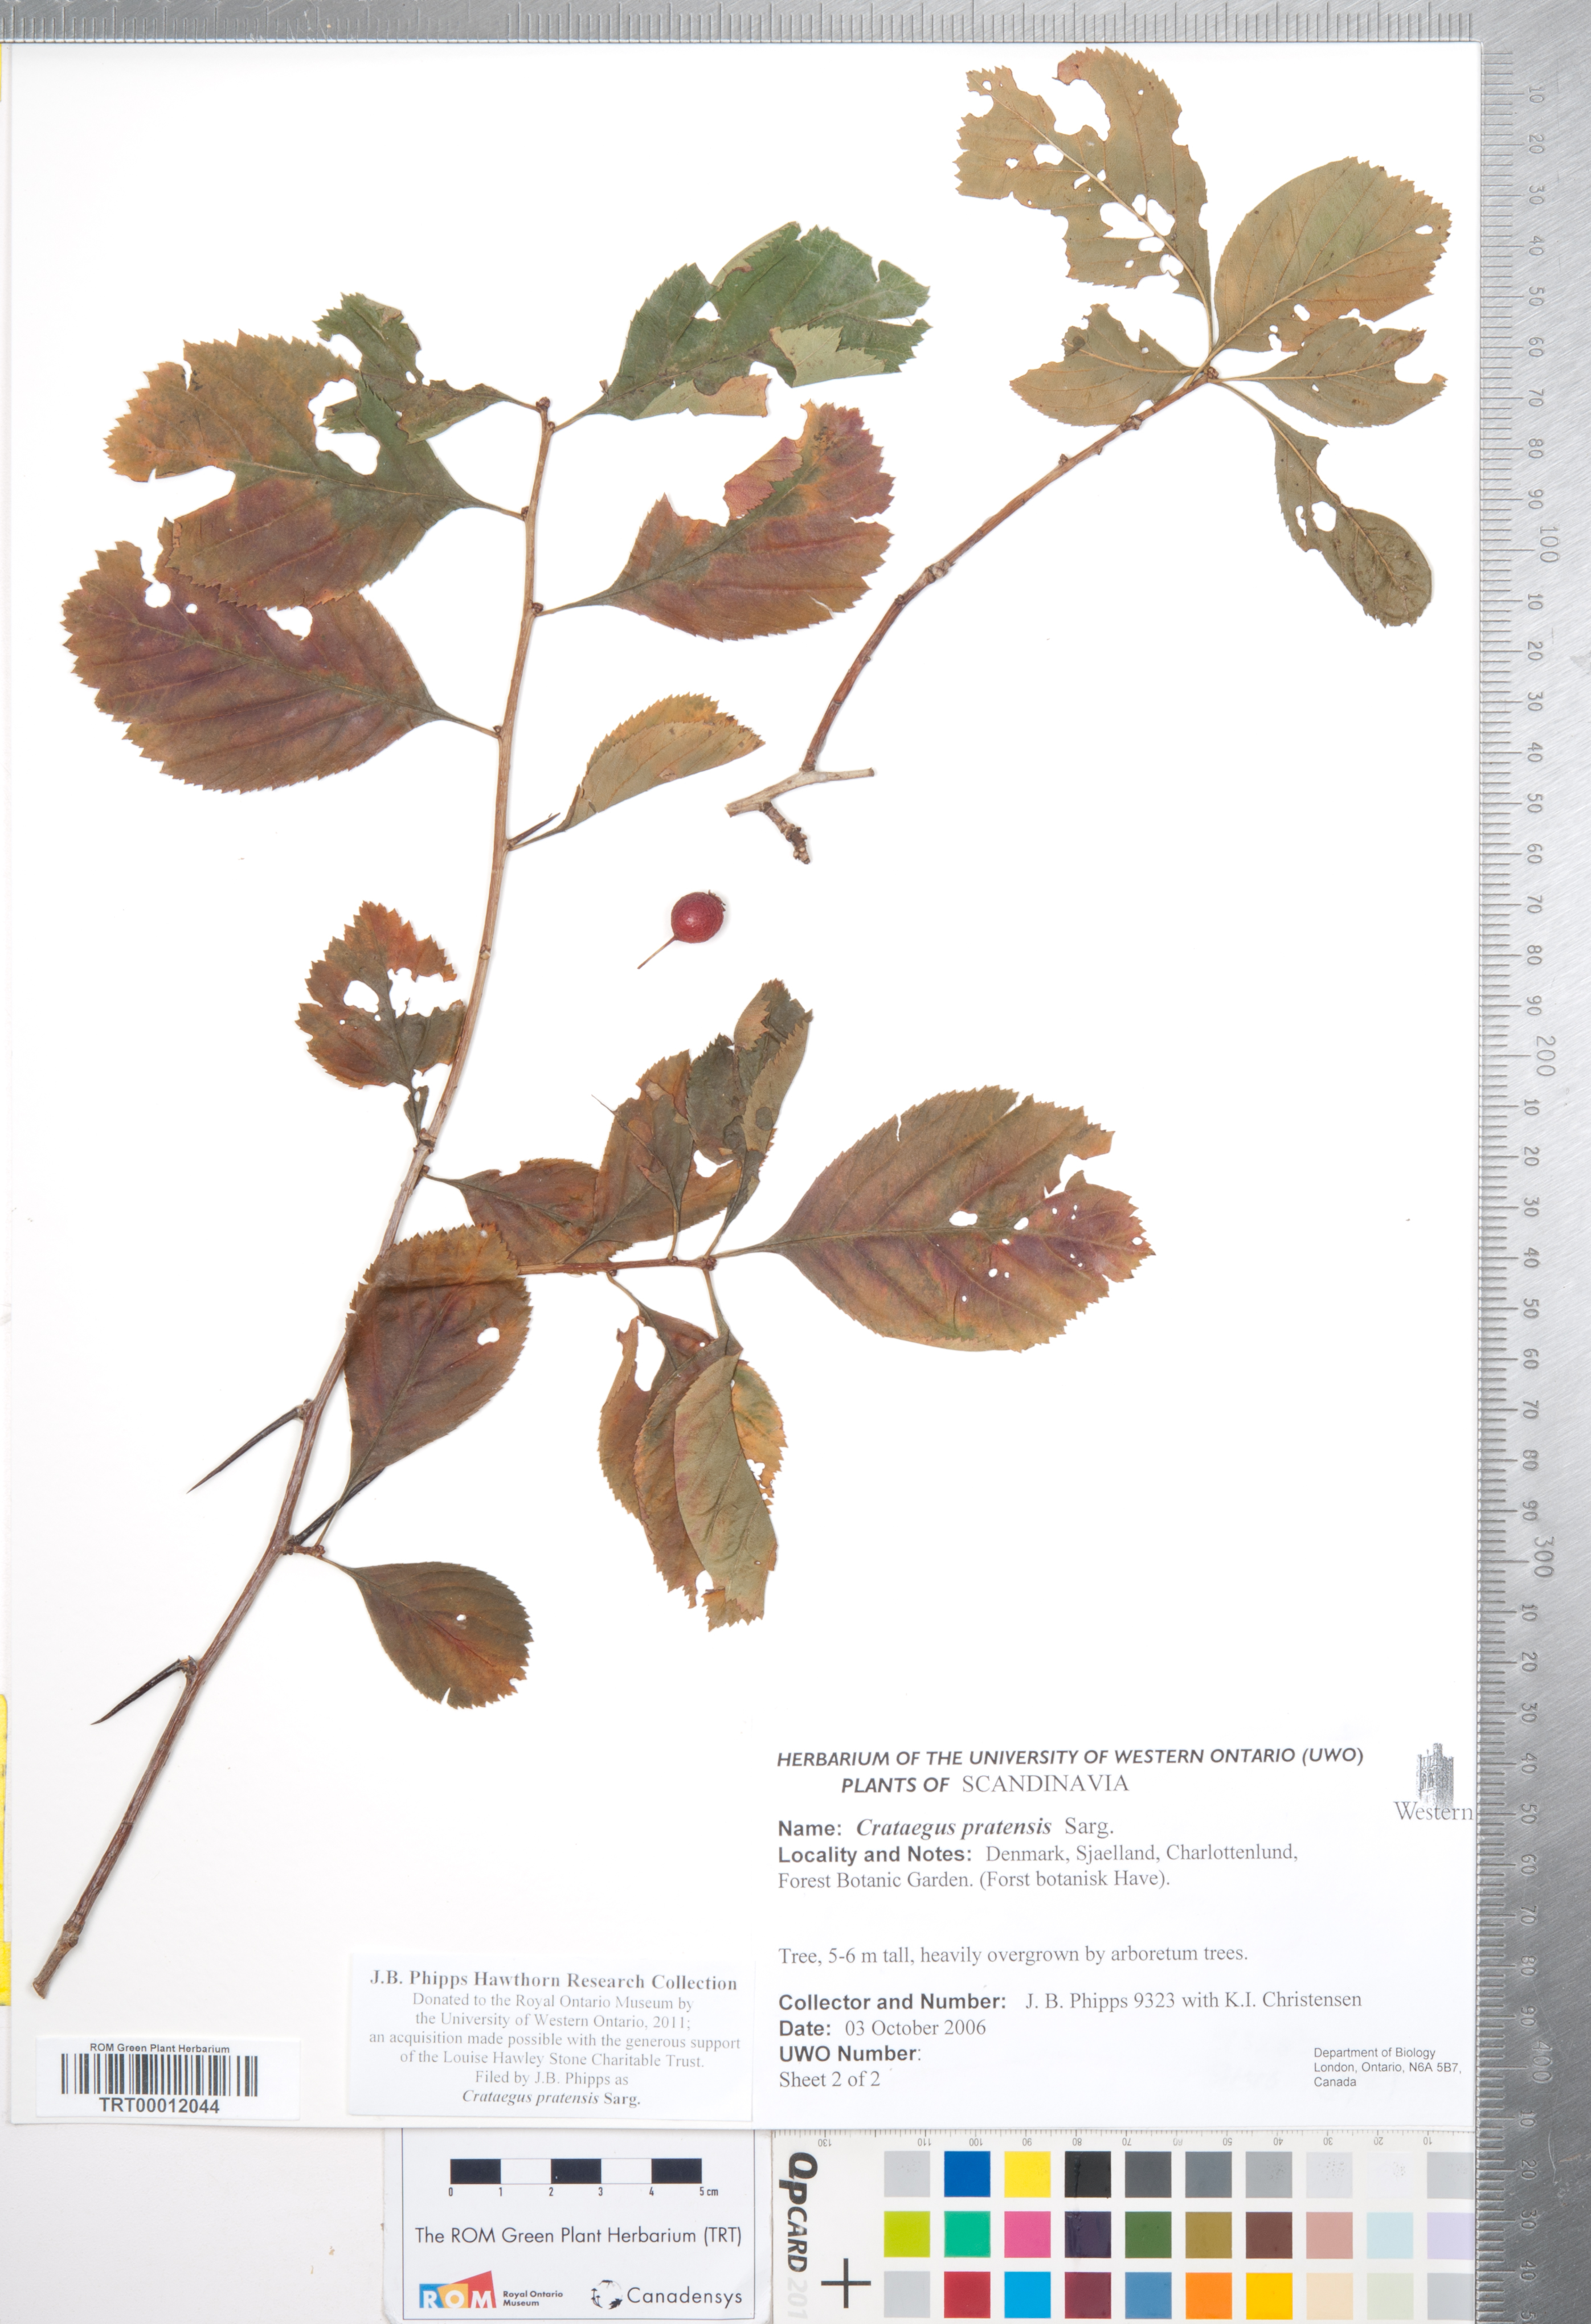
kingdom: Plantae
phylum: Tracheophyta
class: Magnoliopsida
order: Rosales
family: Rosaceae
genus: Crataegus
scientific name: Crataegus punctata
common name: Dotted hawthorn
